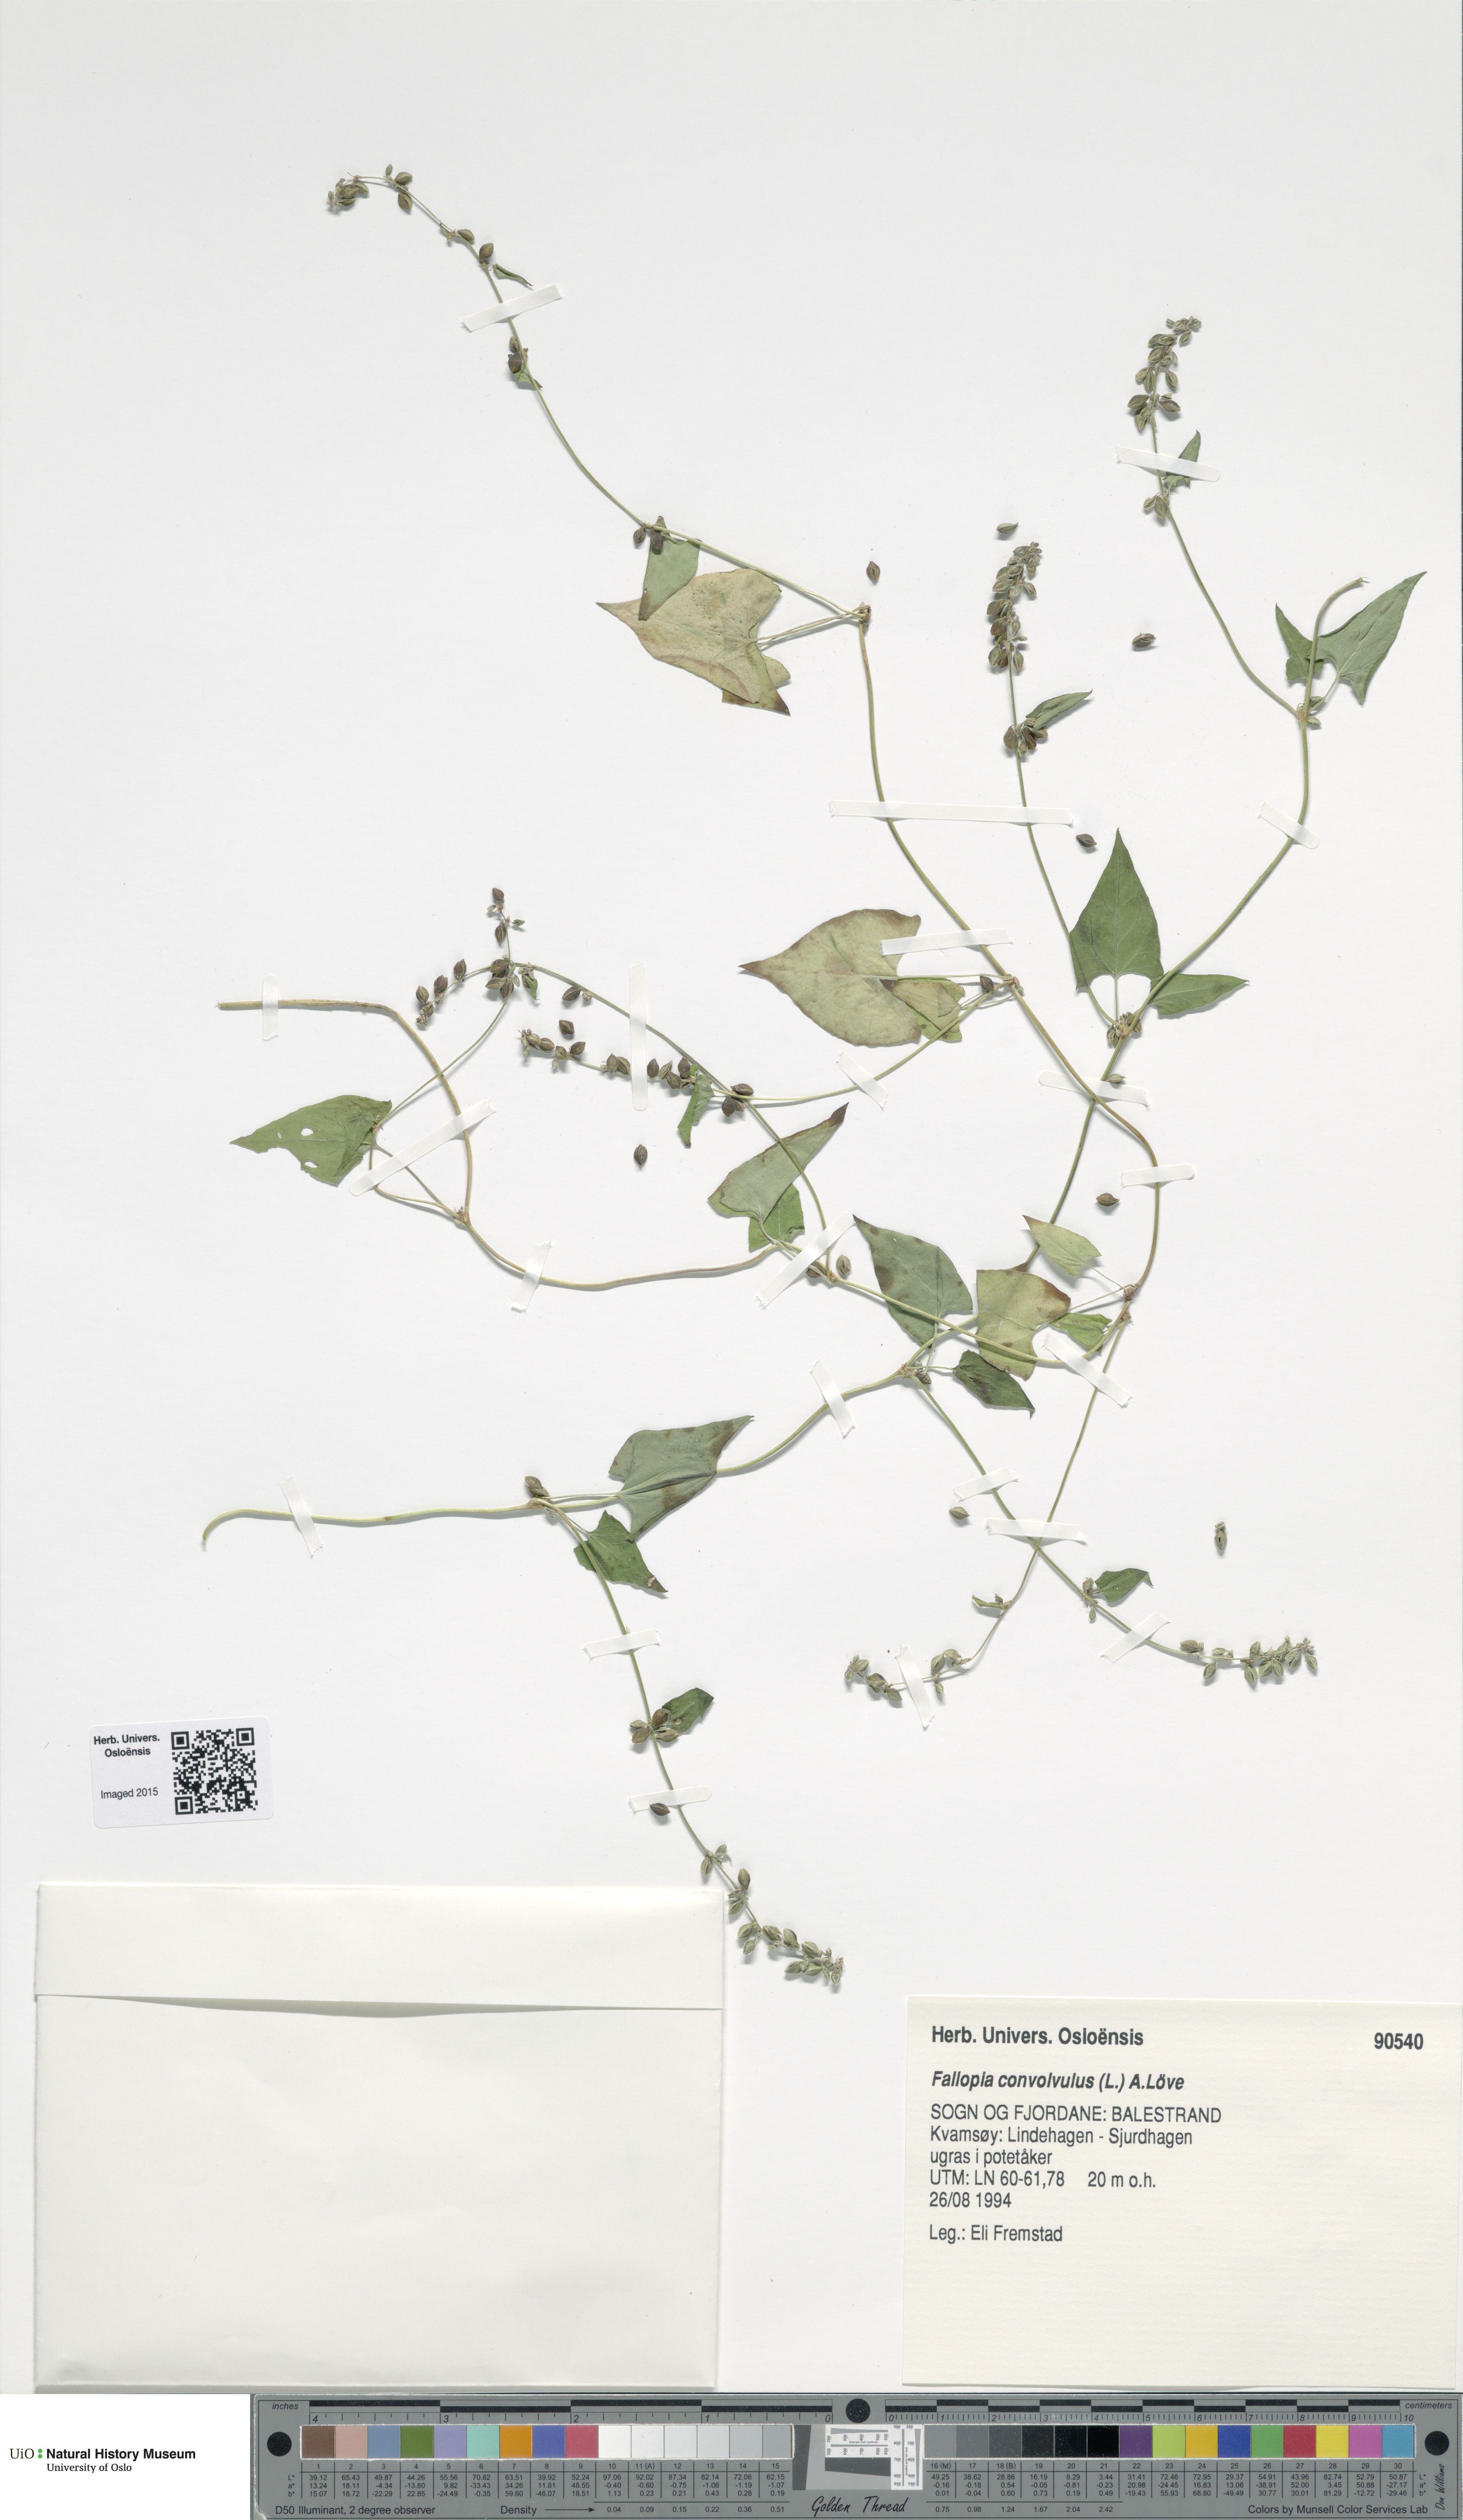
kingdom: Plantae
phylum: Tracheophyta
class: Magnoliopsida
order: Caryophyllales
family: Polygonaceae
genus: Fallopia
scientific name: Fallopia convolvulus
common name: Black bindweed
